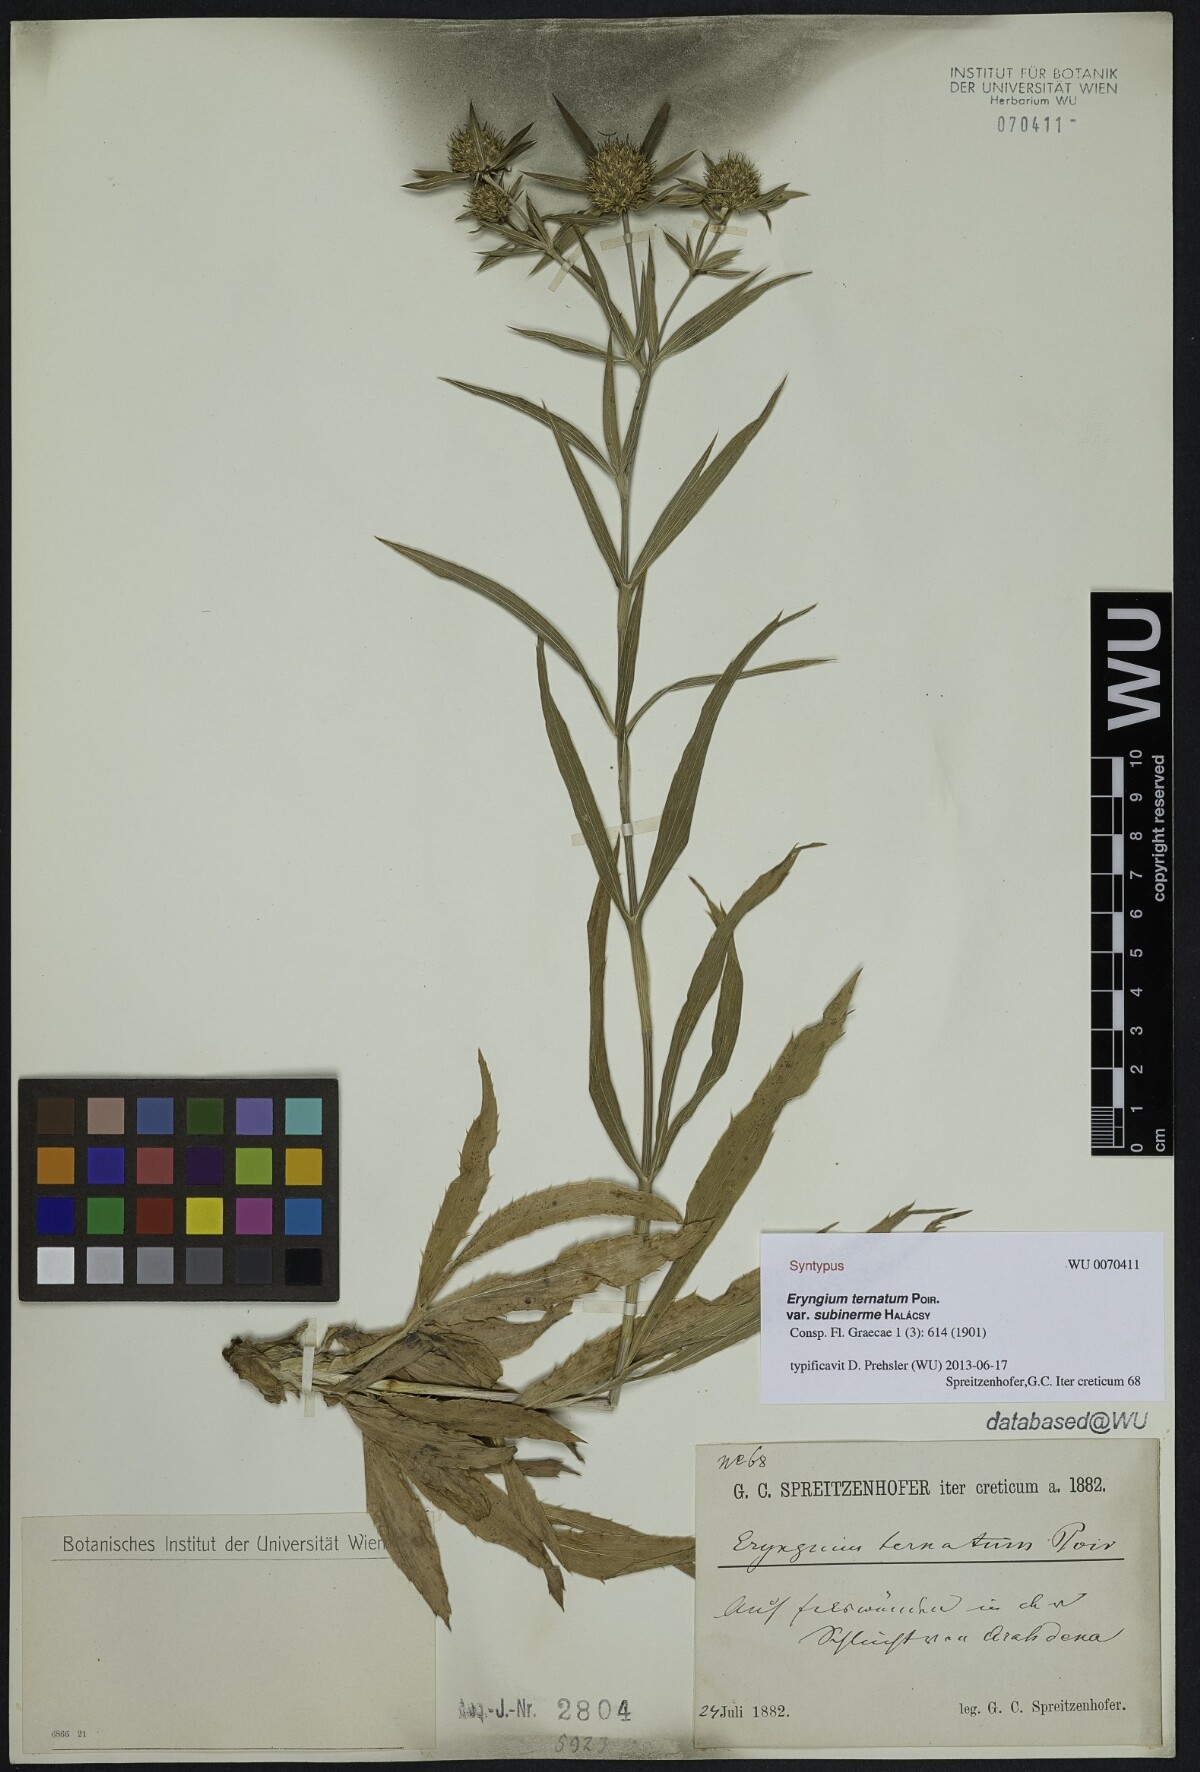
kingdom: Plantae
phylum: Tracheophyta
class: Magnoliopsida
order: Apiales
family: Apiaceae
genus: Eryngium
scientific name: Eryngium ternatum
